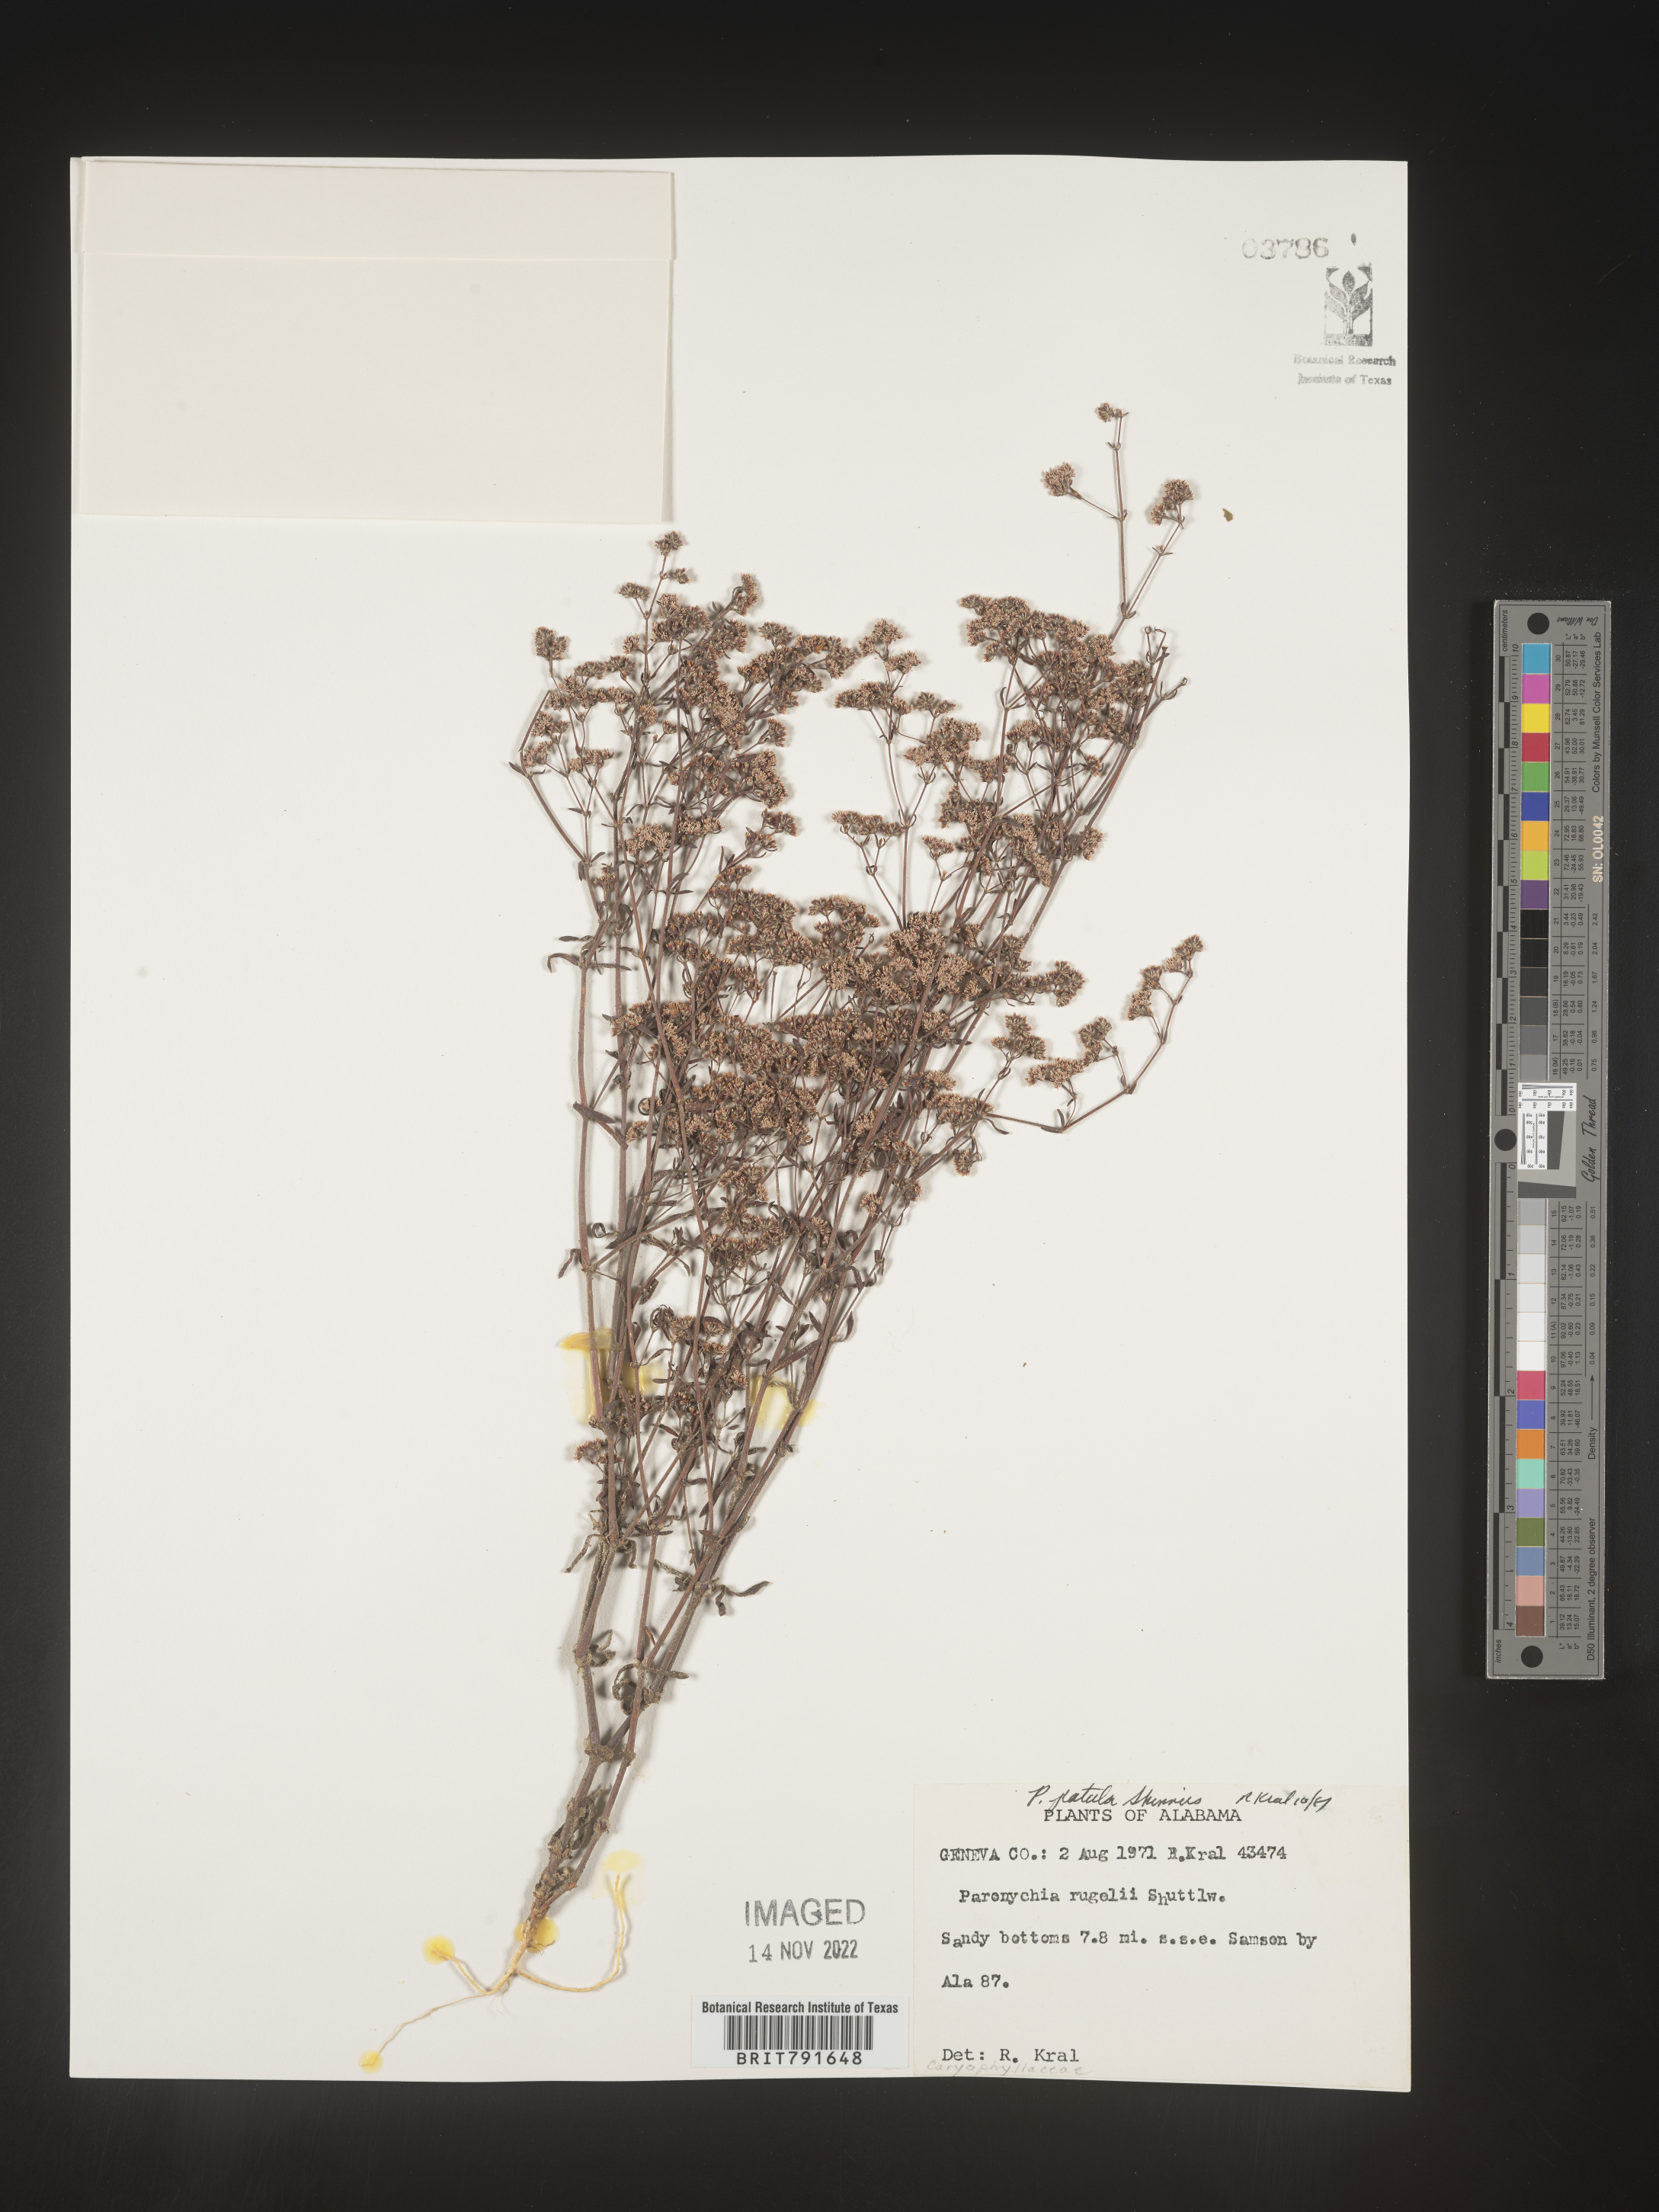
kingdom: Plantae
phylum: Tracheophyta
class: Magnoliopsida
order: Caryophyllales
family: Caryophyllaceae
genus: Paronychia
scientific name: Paronychia patula
